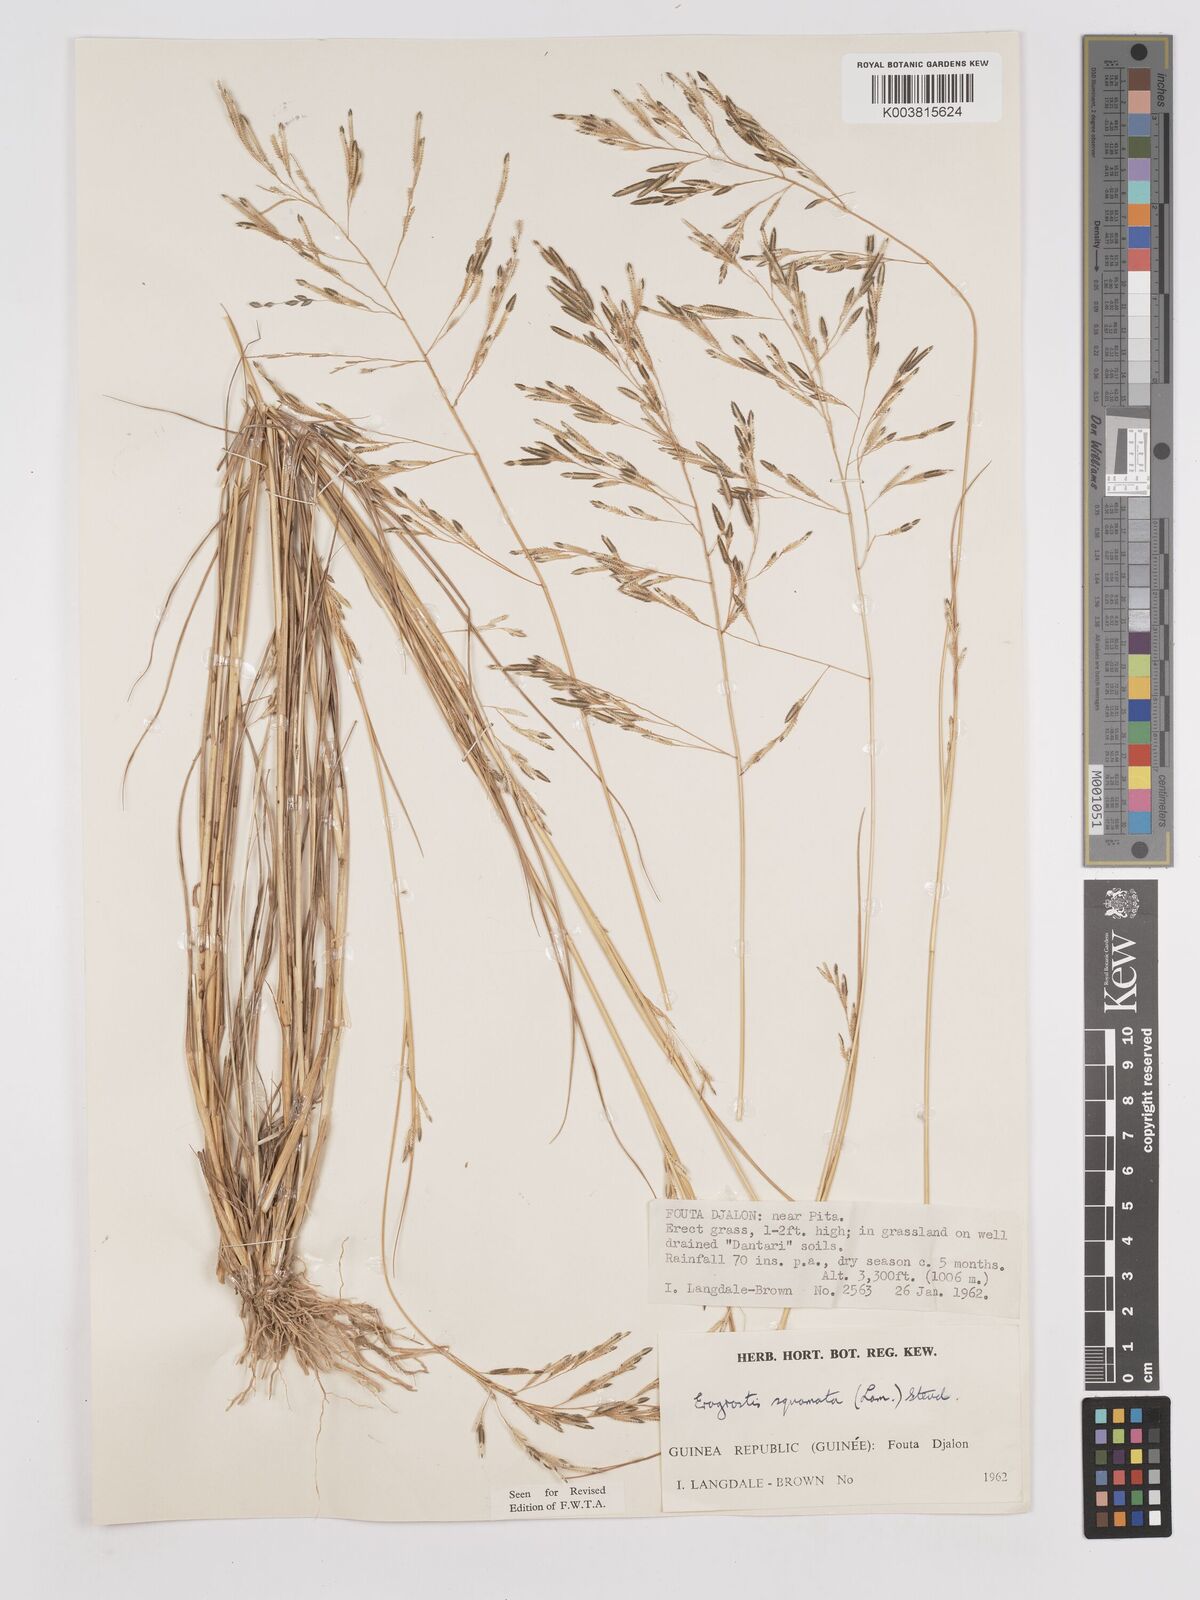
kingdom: Plantae
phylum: Tracheophyta
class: Liliopsida
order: Poales
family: Poaceae
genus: Eragrostis
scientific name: Eragrostis squamata
